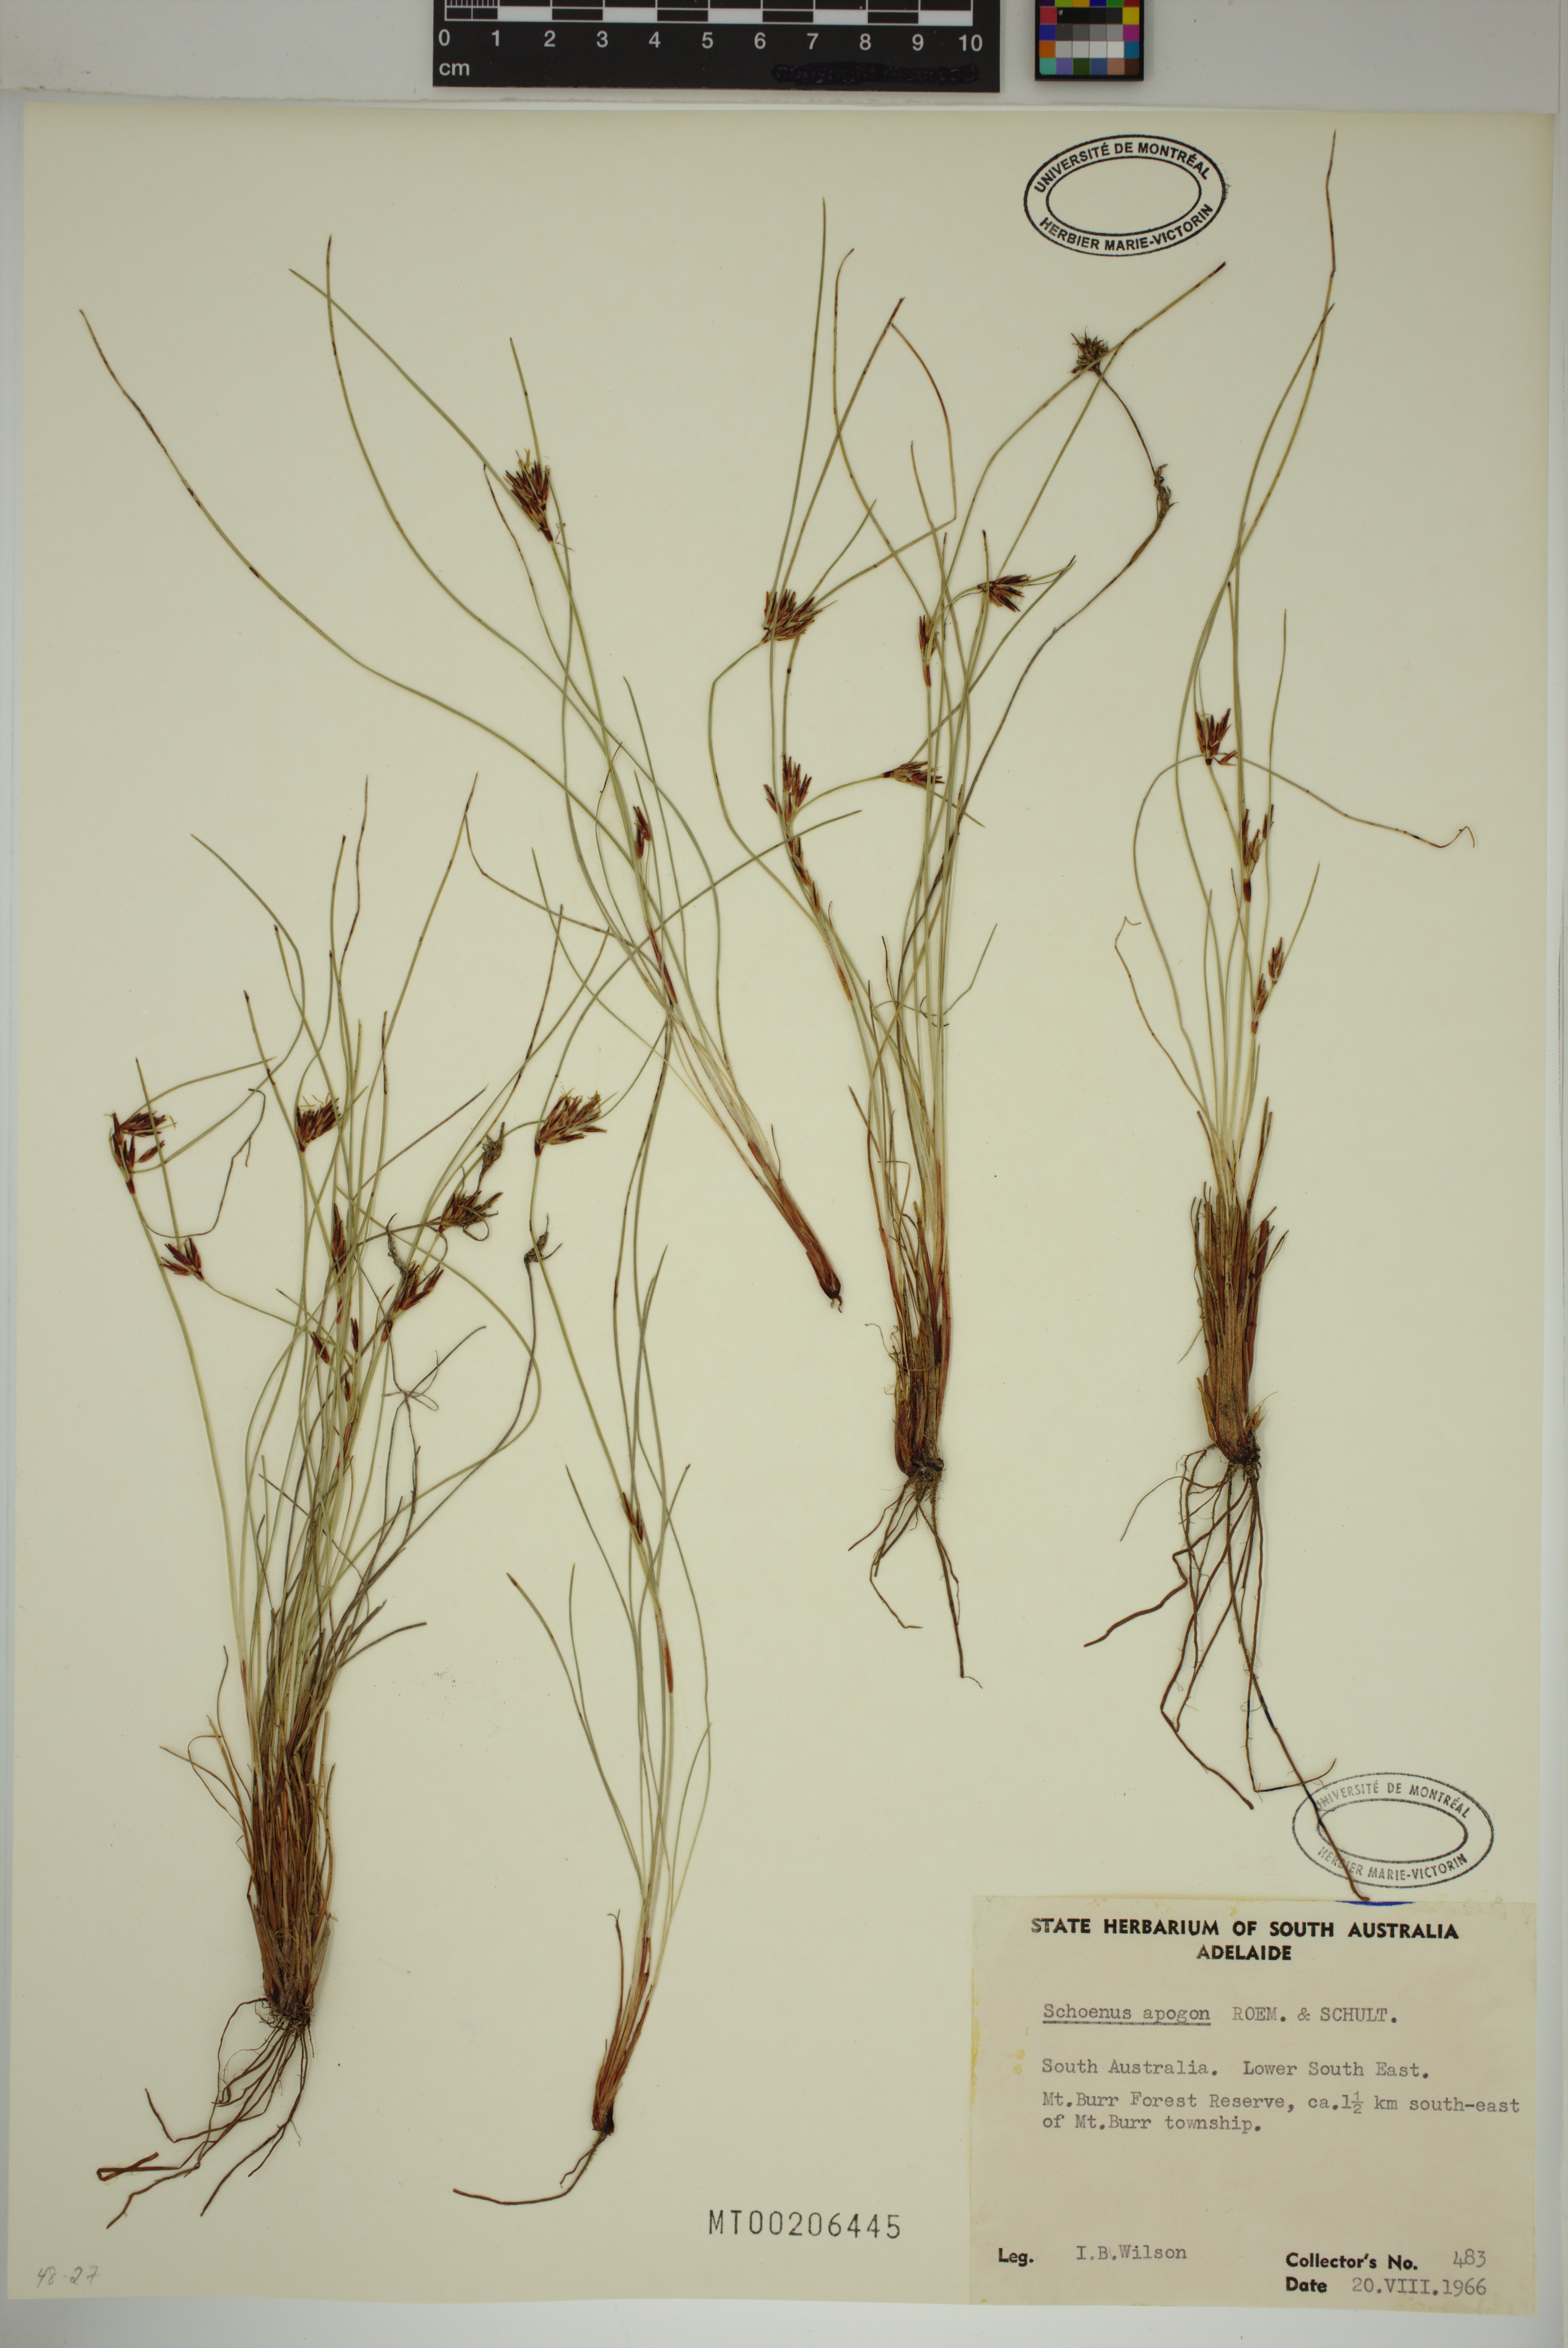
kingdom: Plantae
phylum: Tracheophyta
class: Liliopsida
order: Poales
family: Cyperaceae
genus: Schoenus
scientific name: Schoenus apogon
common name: Smooth bogrush
